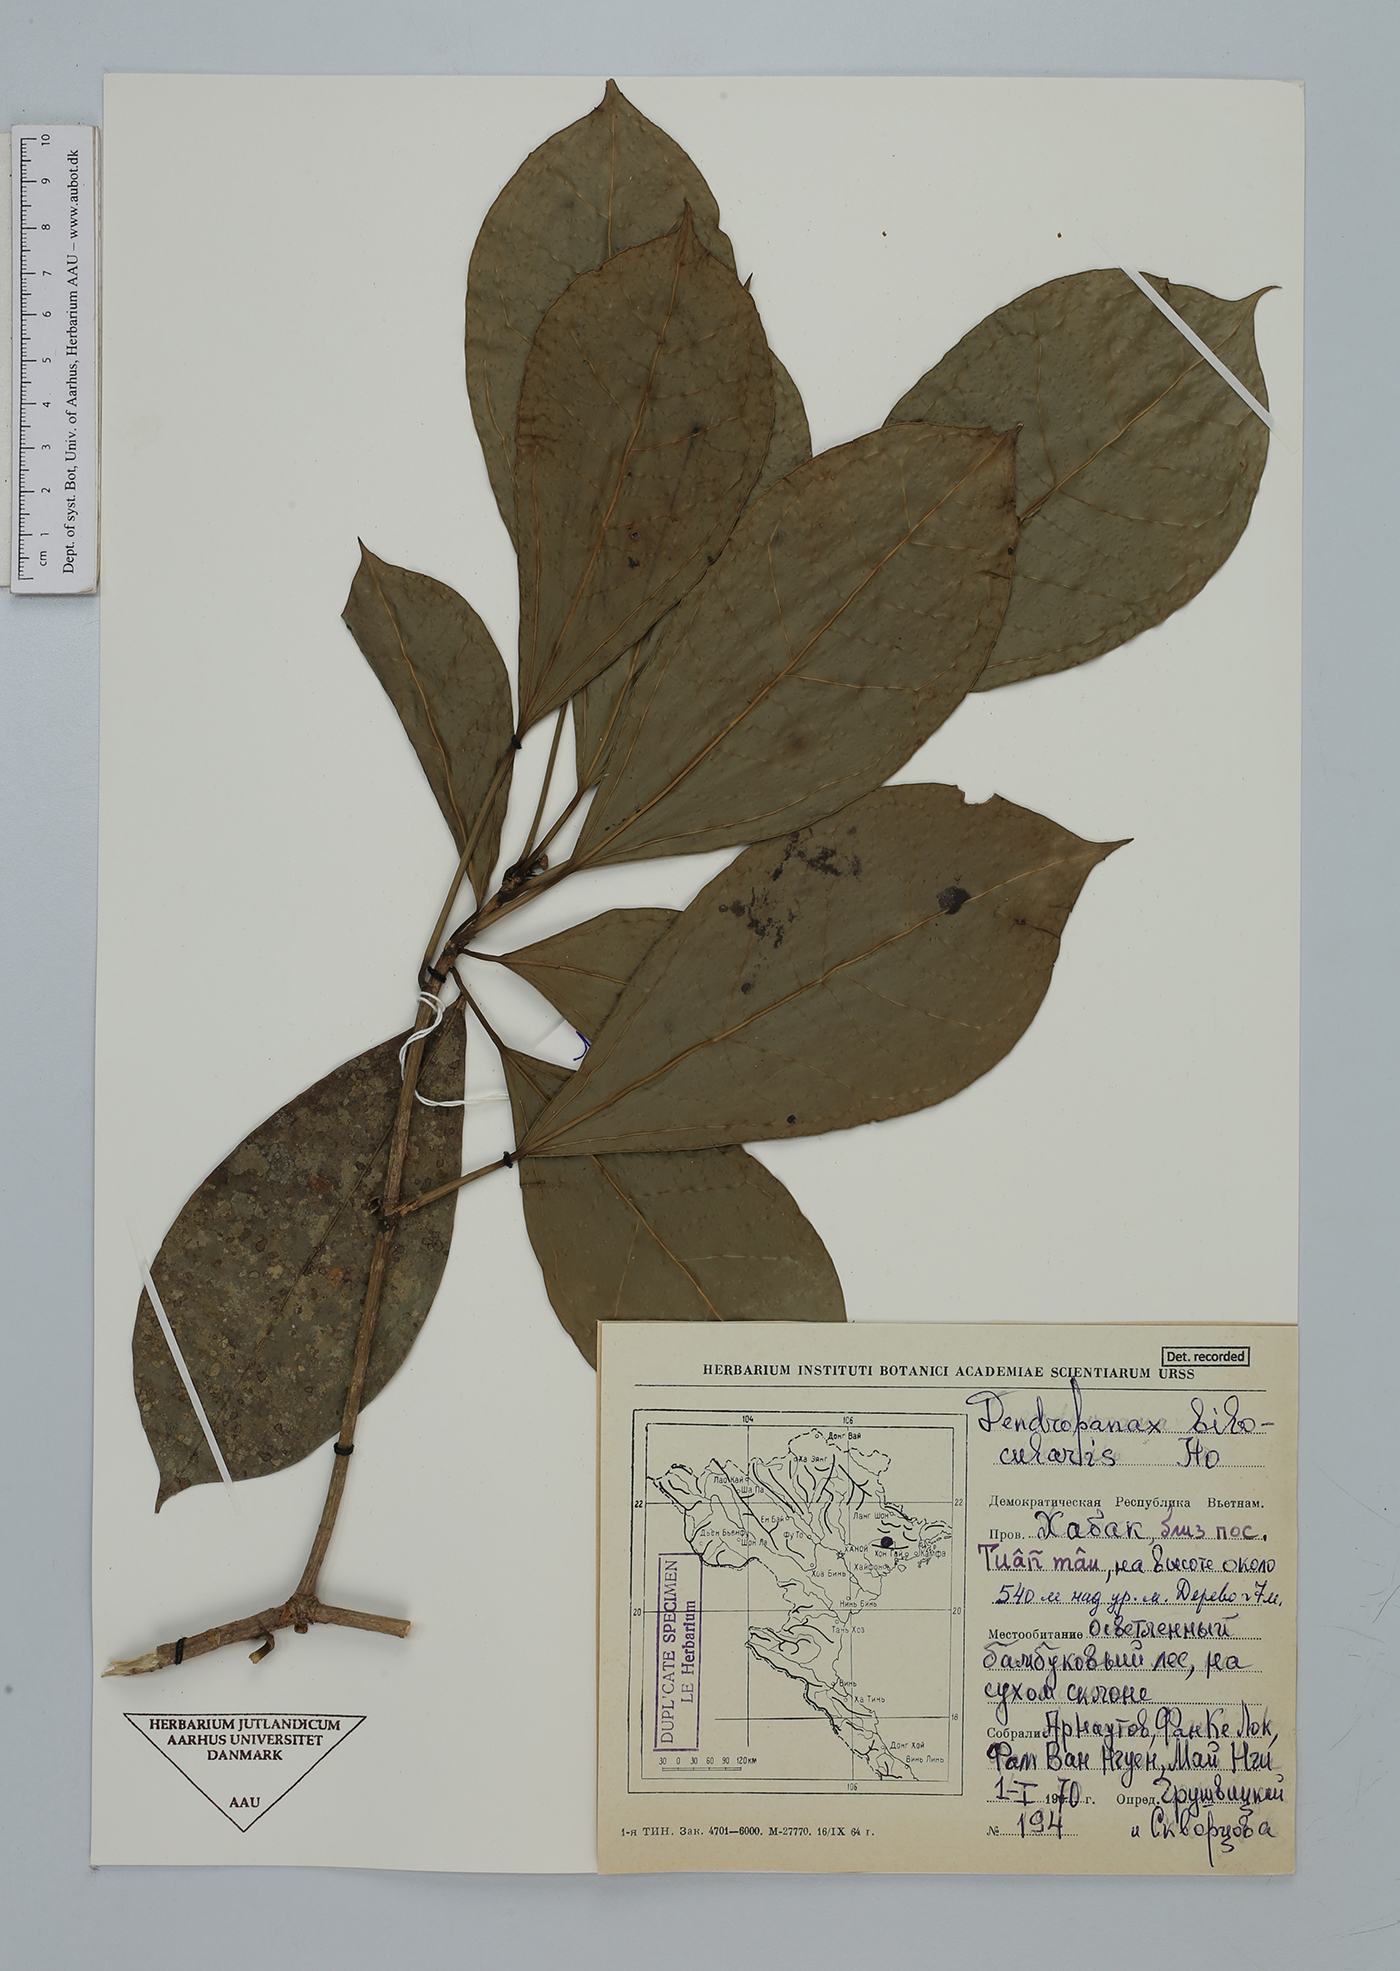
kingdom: Plantae
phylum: Tracheophyta
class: Magnoliopsida
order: Apiales
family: Araliaceae
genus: Dendropanax
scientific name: Dendropanax bilocularis
